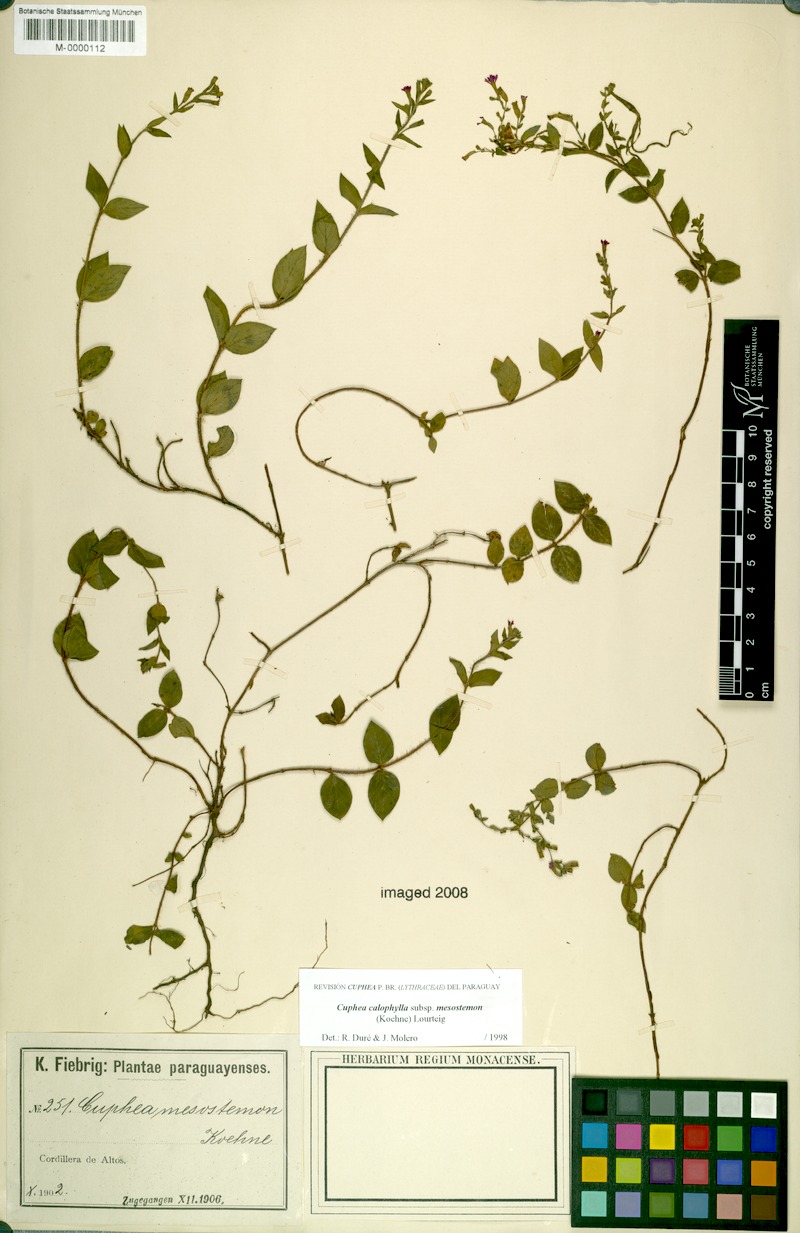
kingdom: Plantae
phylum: Tracheophyta
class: Magnoliopsida
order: Myrtales
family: Lythraceae
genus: Cuphea
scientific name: Cuphea calophylla
